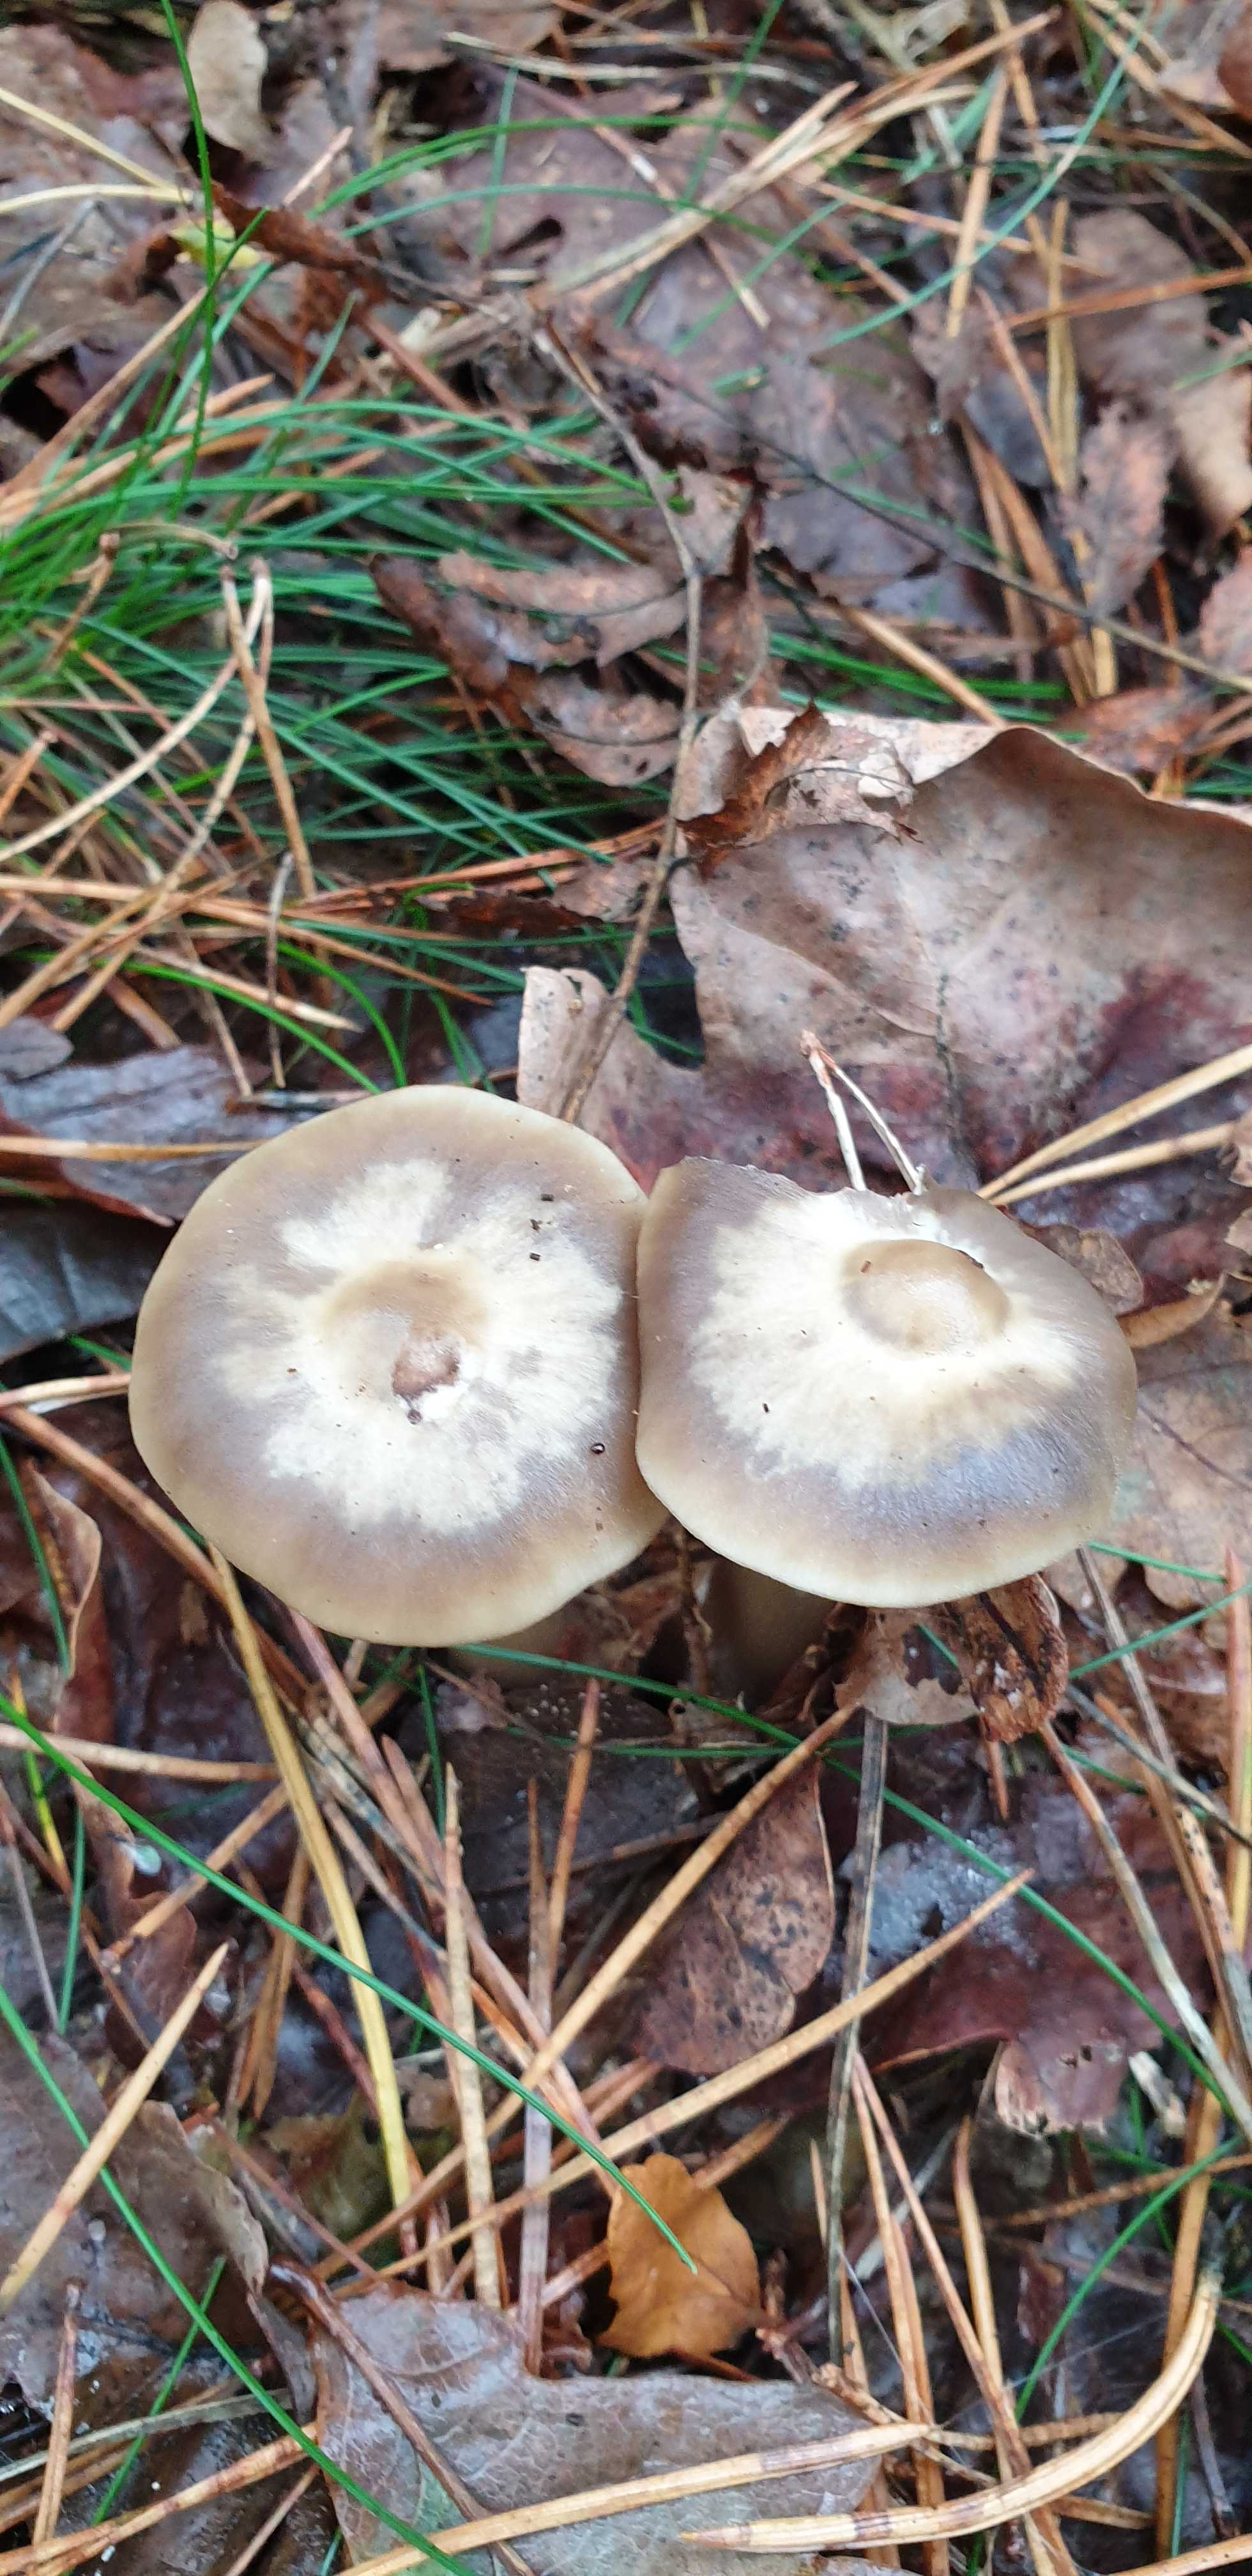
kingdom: Fungi
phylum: Basidiomycota
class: Agaricomycetes
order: Agaricales
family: Omphalotaceae
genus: Rhodocollybia
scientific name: Rhodocollybia asema
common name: horngrå fladhat
